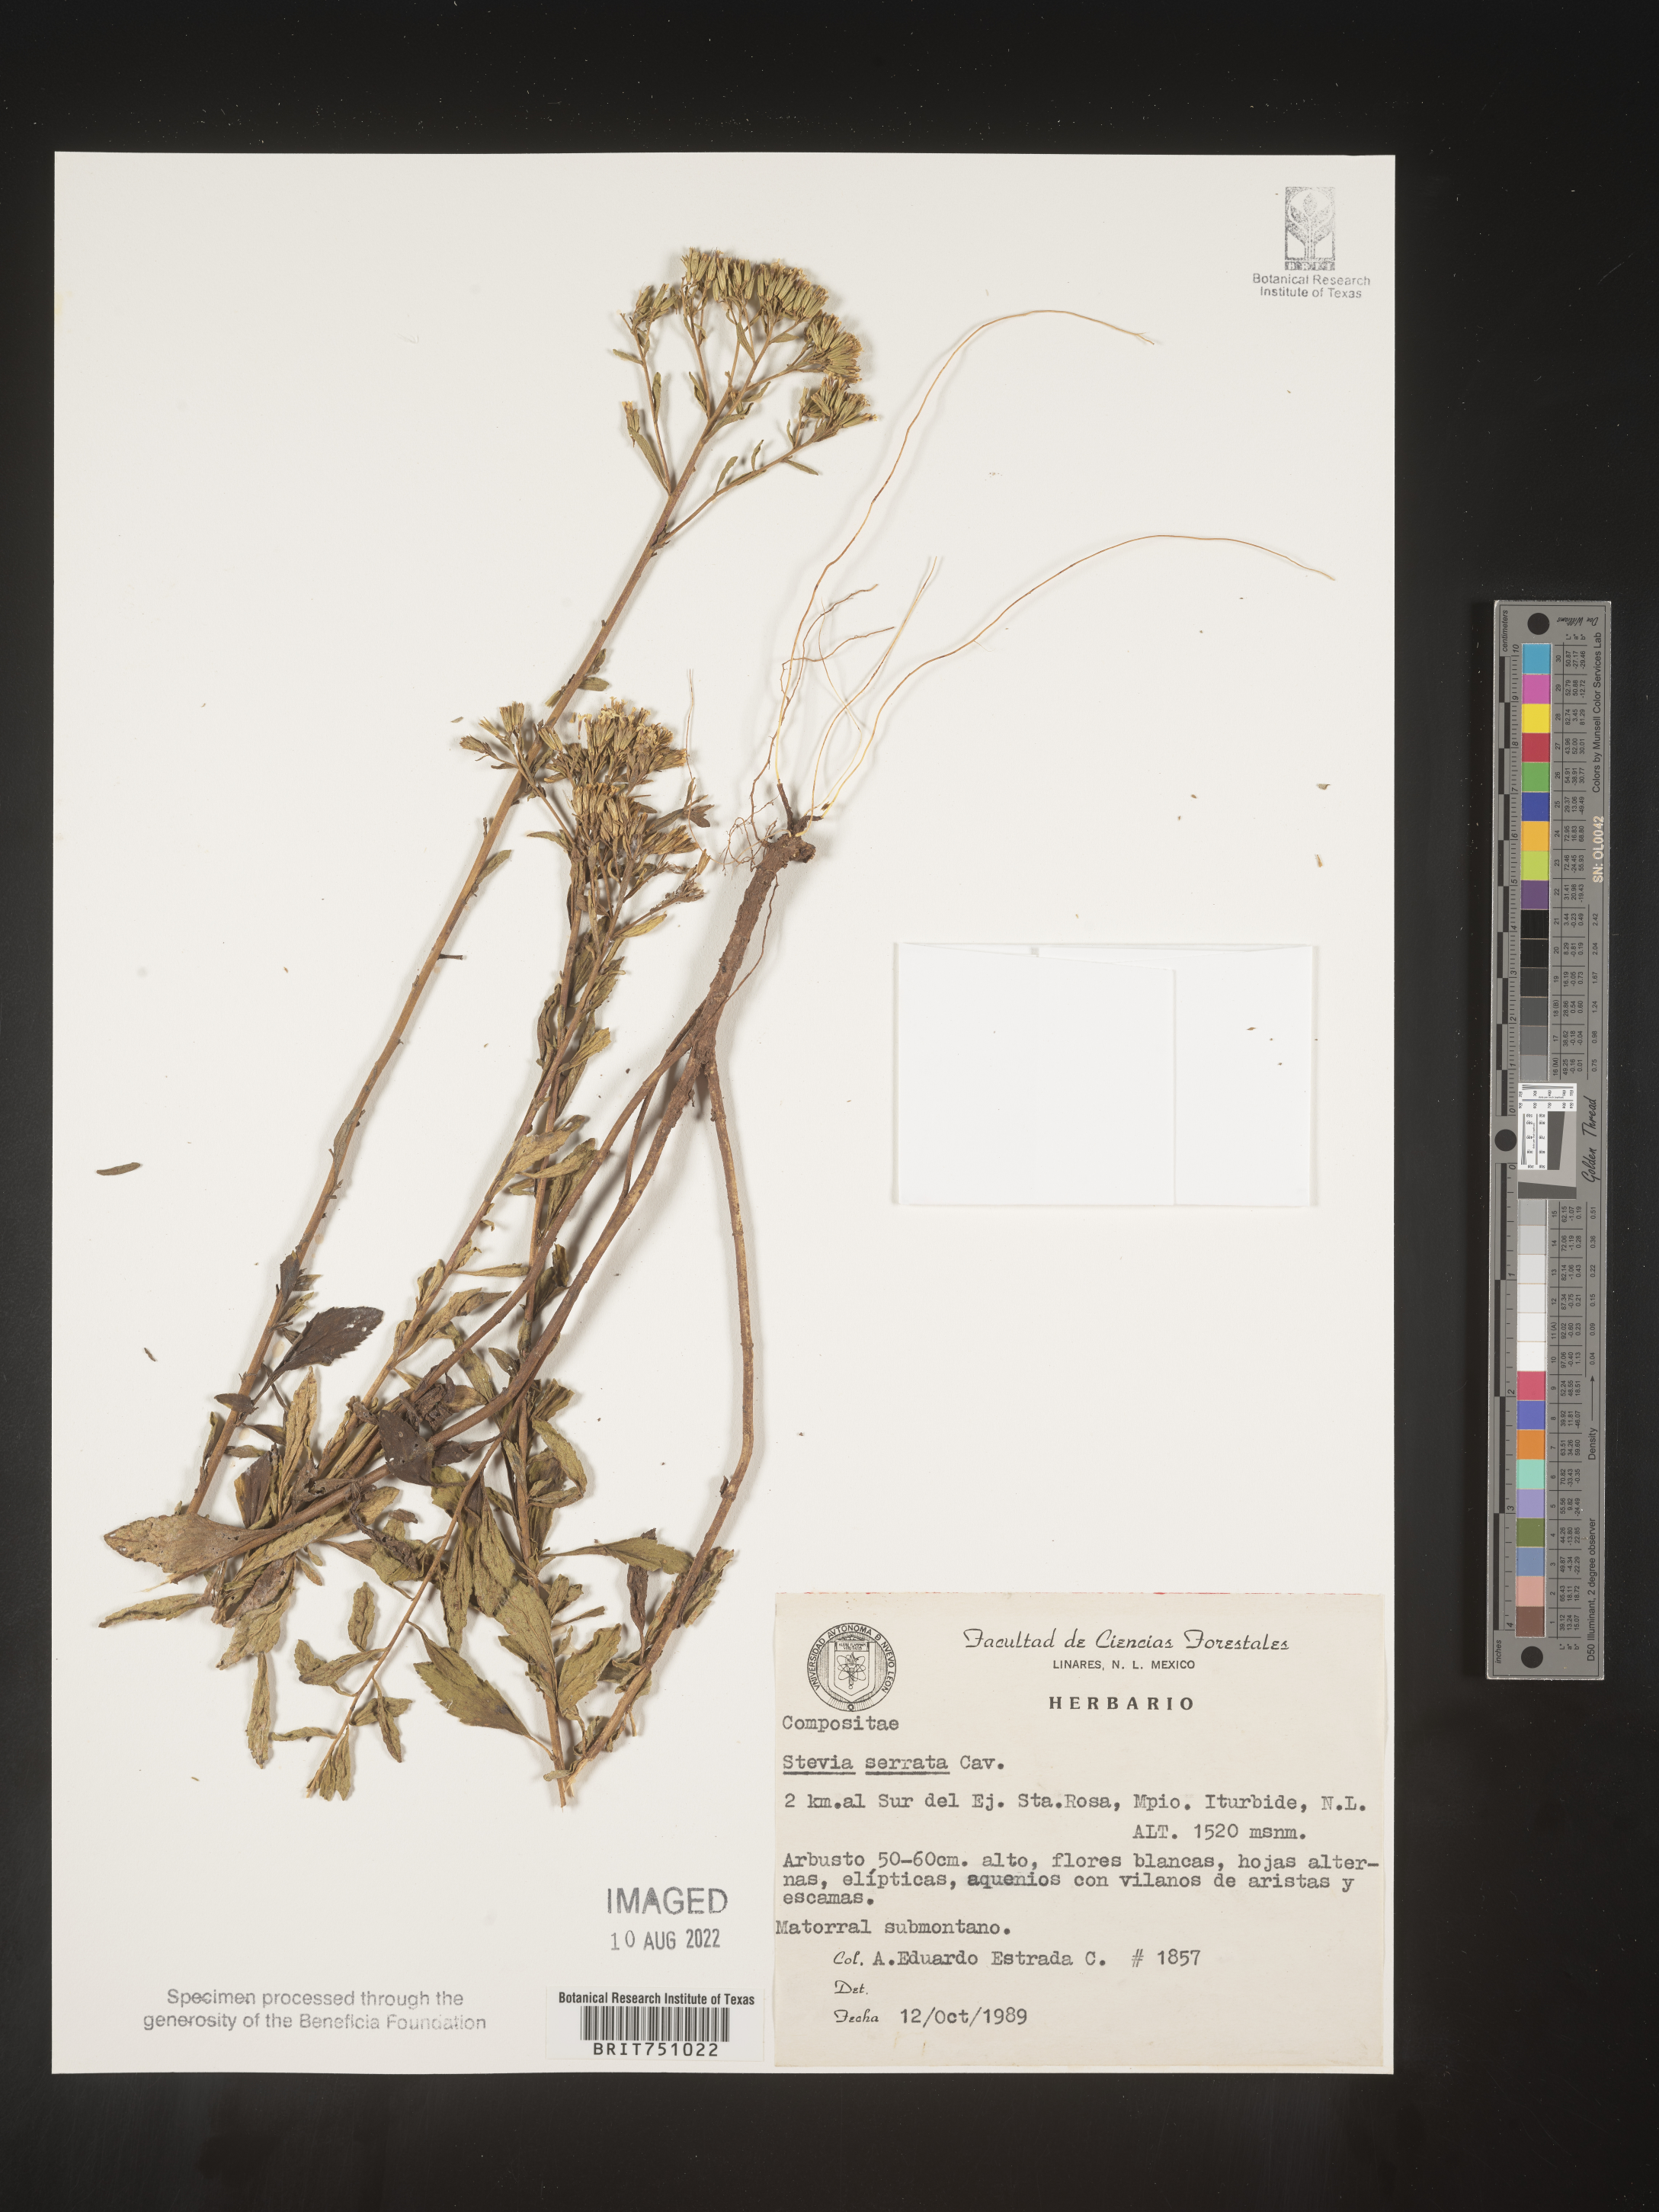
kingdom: Plantae
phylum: Tracheophyta
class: Magnoliopsida
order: Asterales
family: Asteraceae
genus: Stevia
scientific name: Stevia serrata
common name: Sawtooth candyleaf
